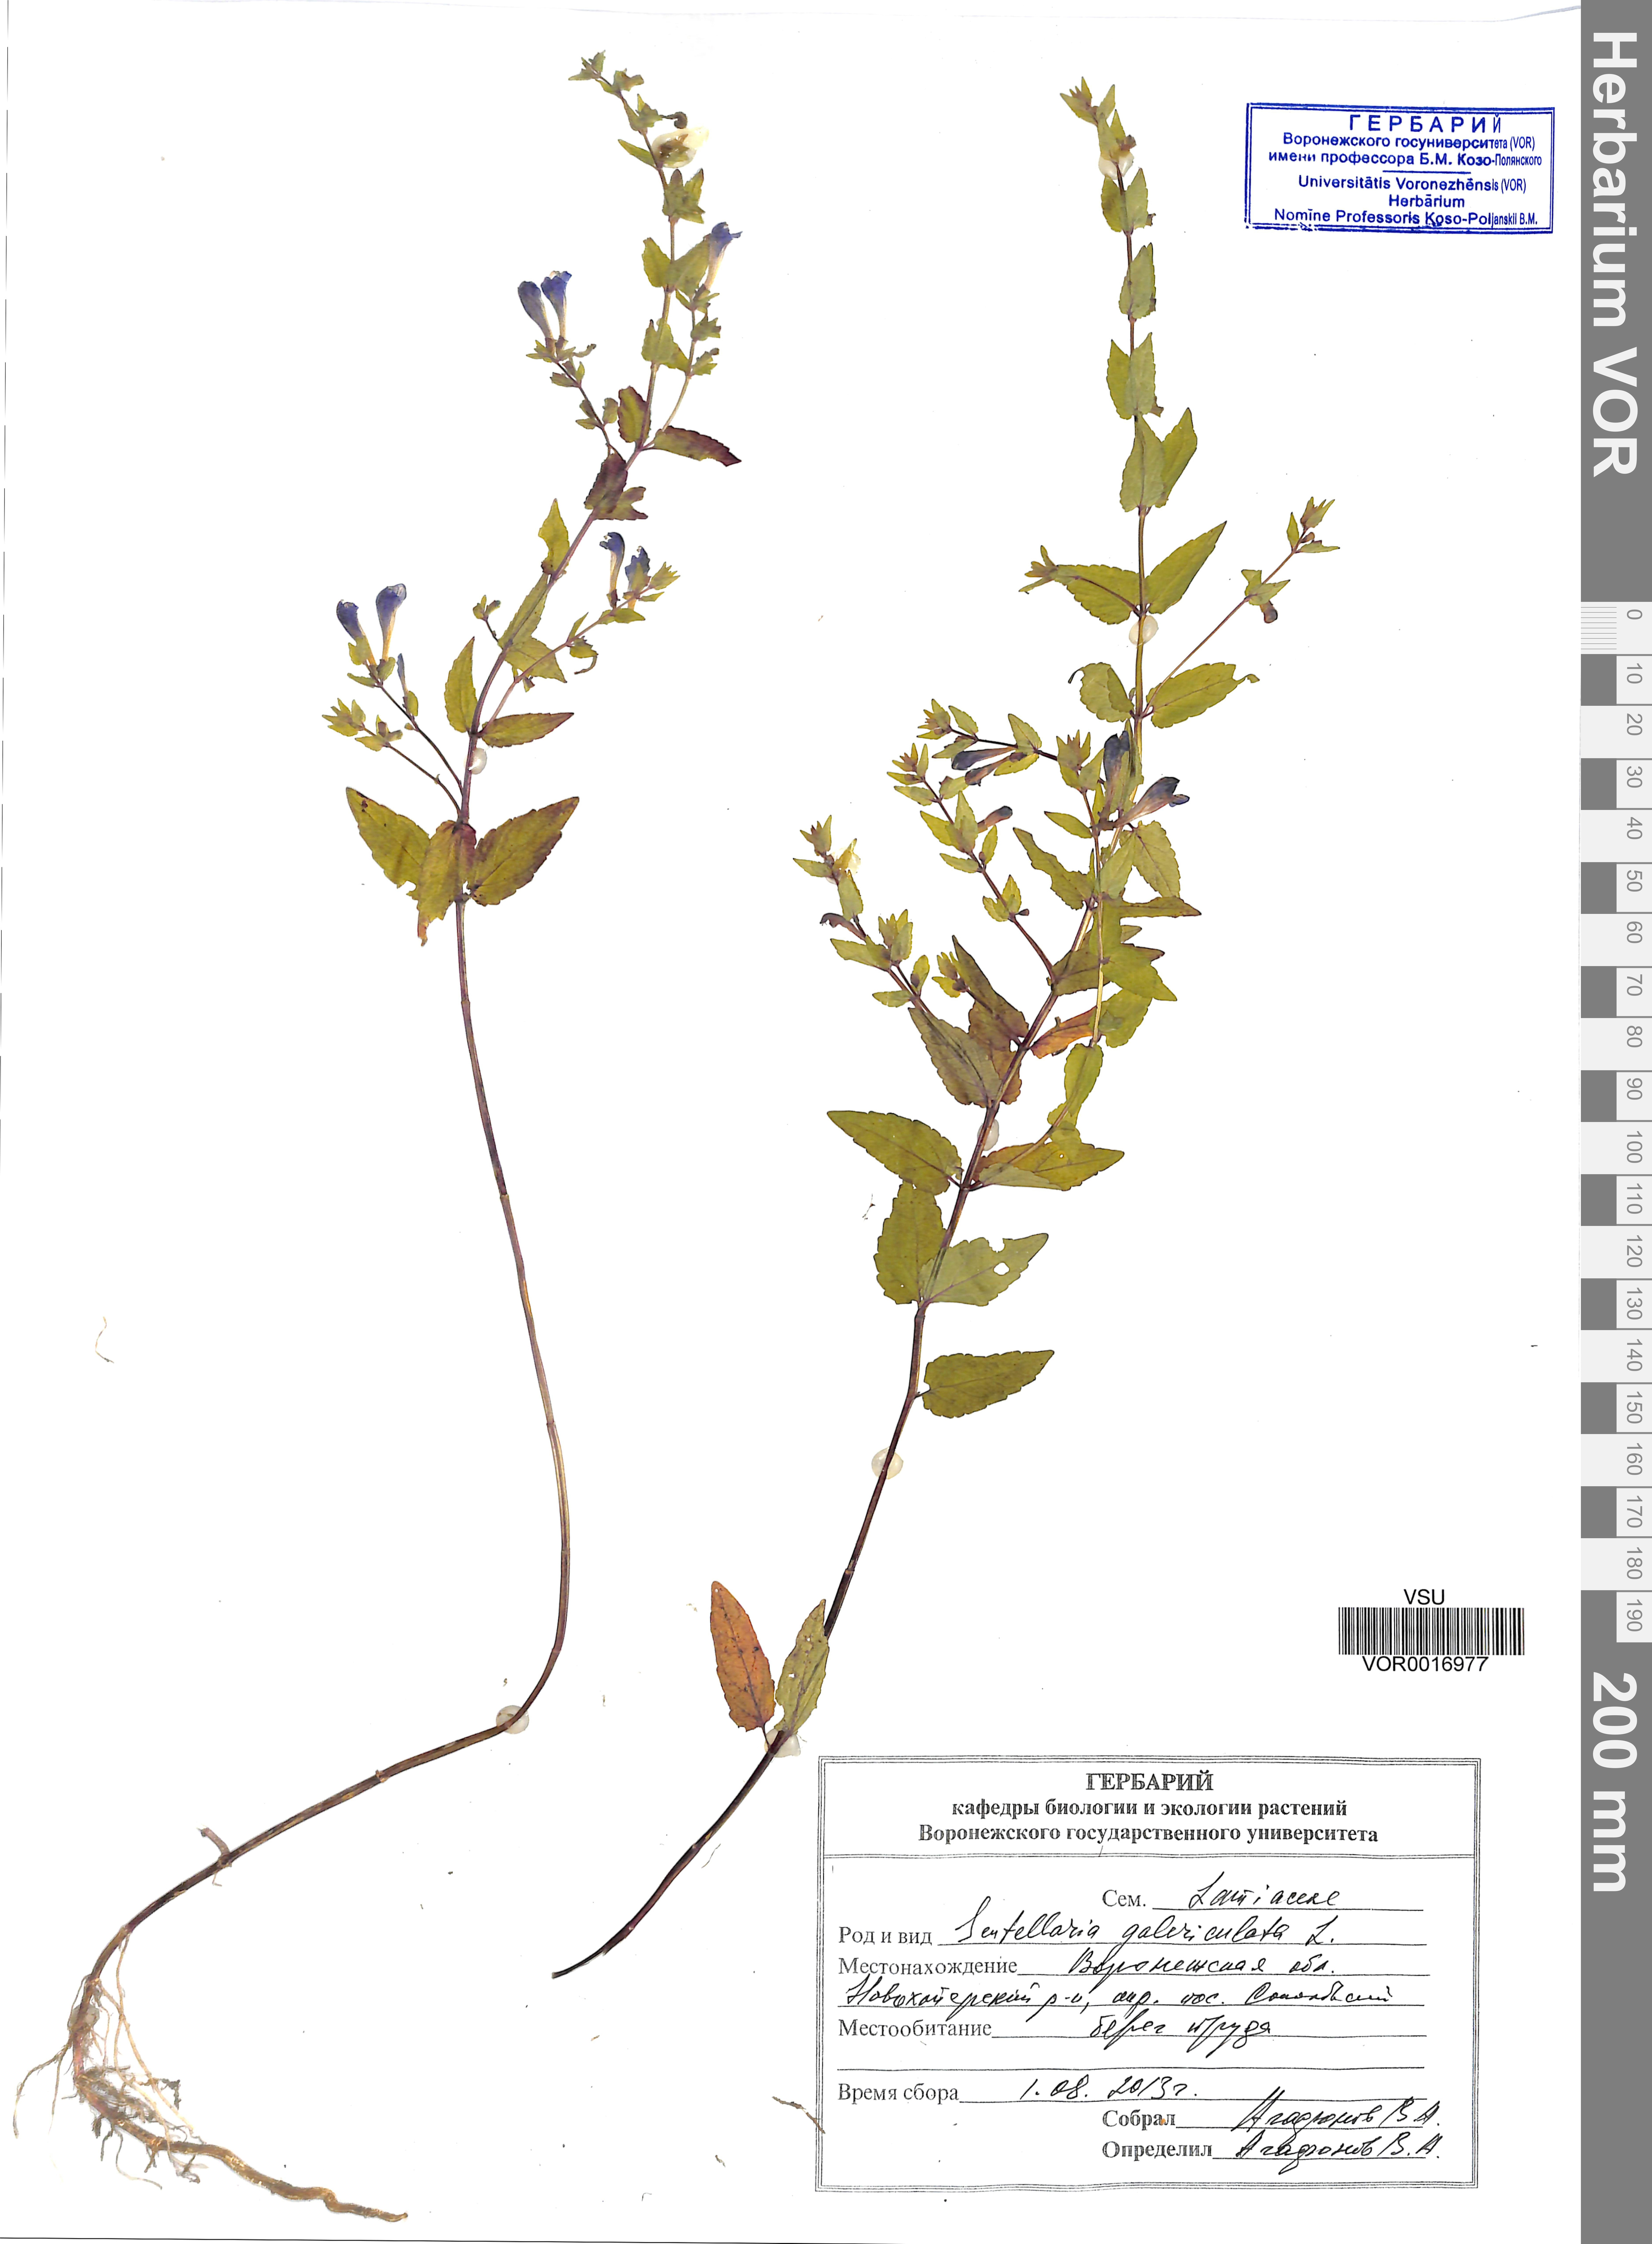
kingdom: Plantae
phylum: Tracheophyta
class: Magnoliopsida
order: Lamiales
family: Lamiaceae
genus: Scutellaria
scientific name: Scutellaria galericulata
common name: Skullcap
